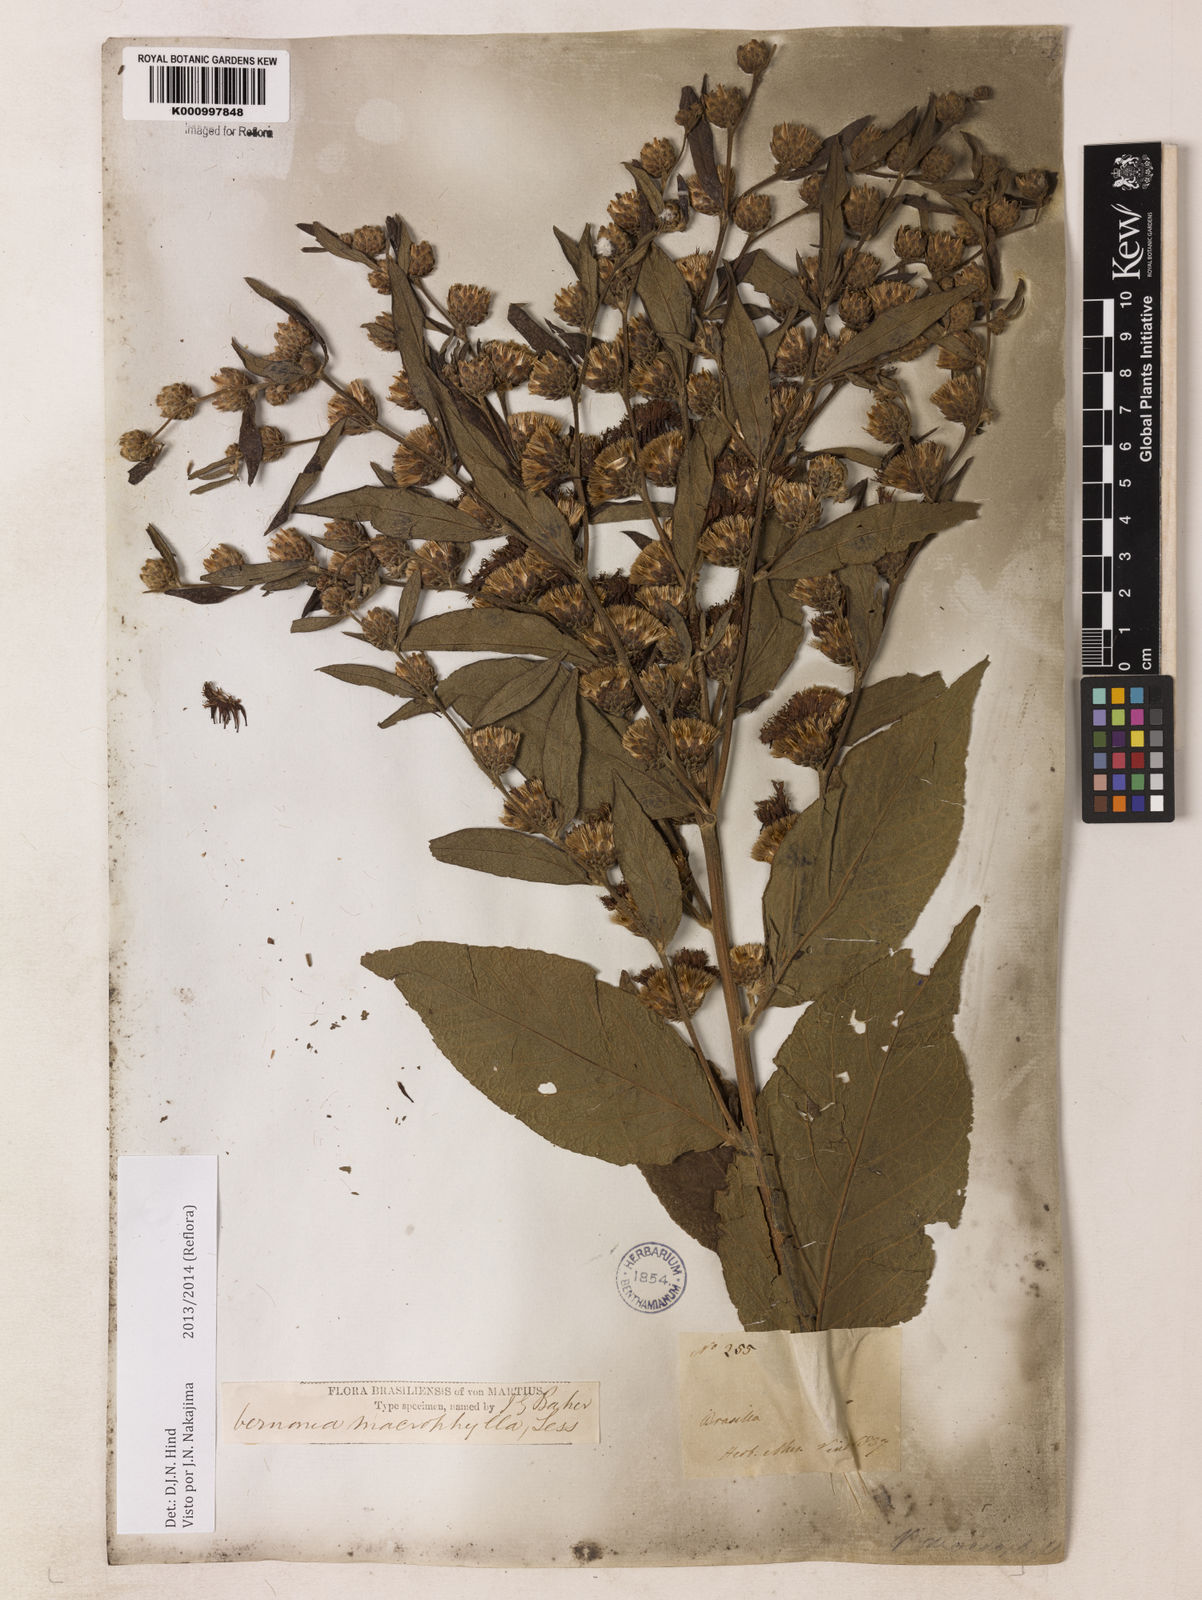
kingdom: Plantae
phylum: Tracheophyta
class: Magnoliopsida
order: Asterales
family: Asteraceae
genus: Lessingianthus
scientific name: Lessingianthus macrophyllus
